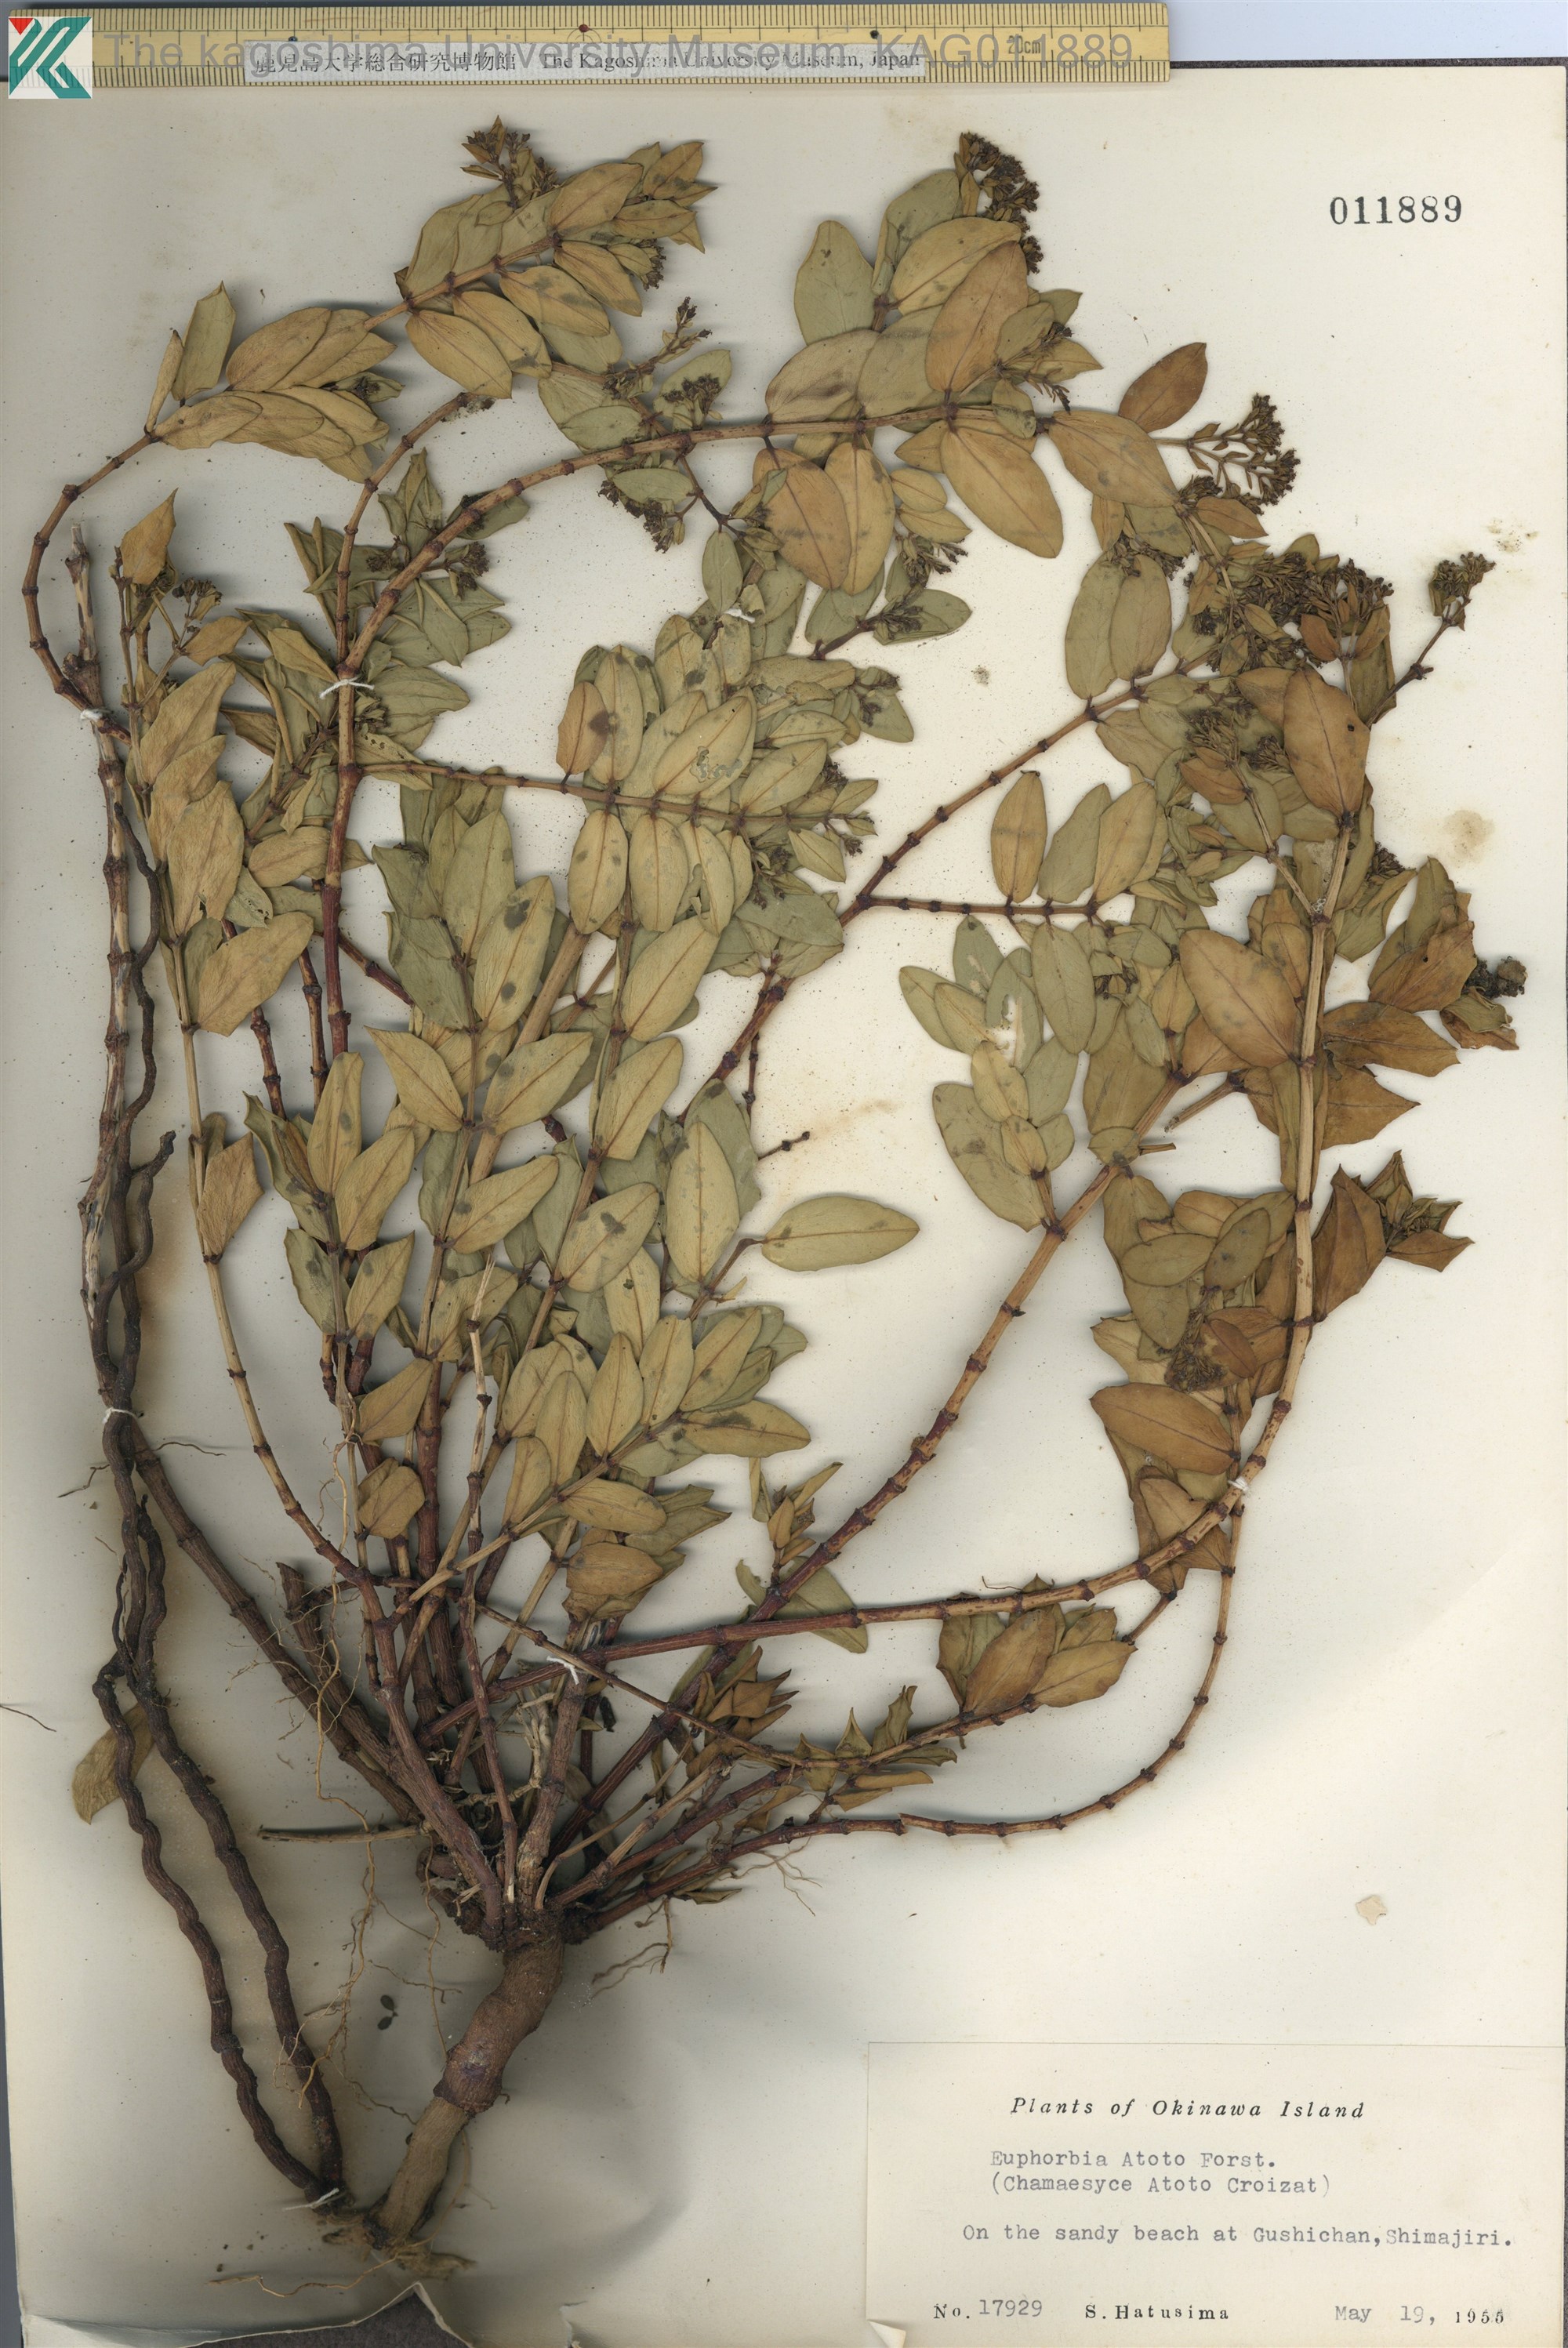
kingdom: Plantae
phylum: Tracheophyta
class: Magnoliopsida
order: Malpighiales
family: Euphorbiaceae
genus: Euphorbia
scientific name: Euphorbia chamissonis
